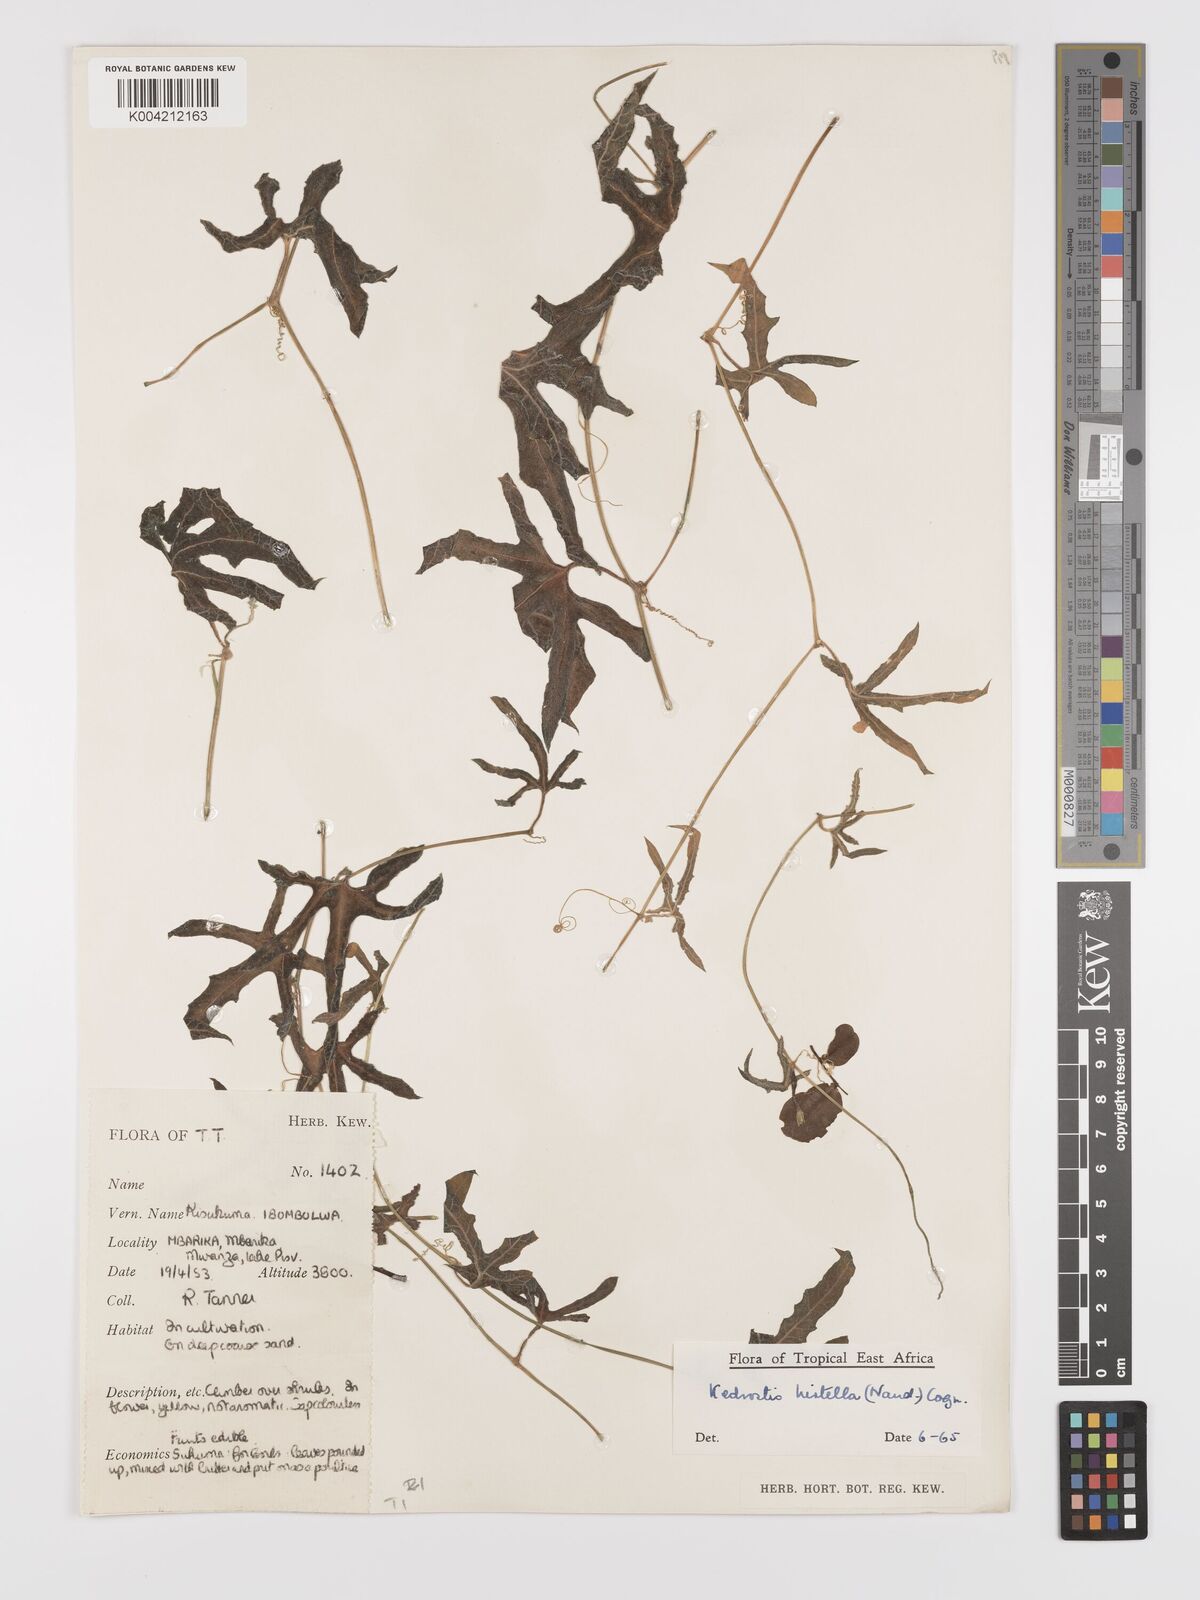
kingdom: Plantae
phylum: Tracheophyta
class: Magnoliopsida
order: Cucurbitales
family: Cucurbitaceae
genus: Kedrostis
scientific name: Kedrostis leloja
